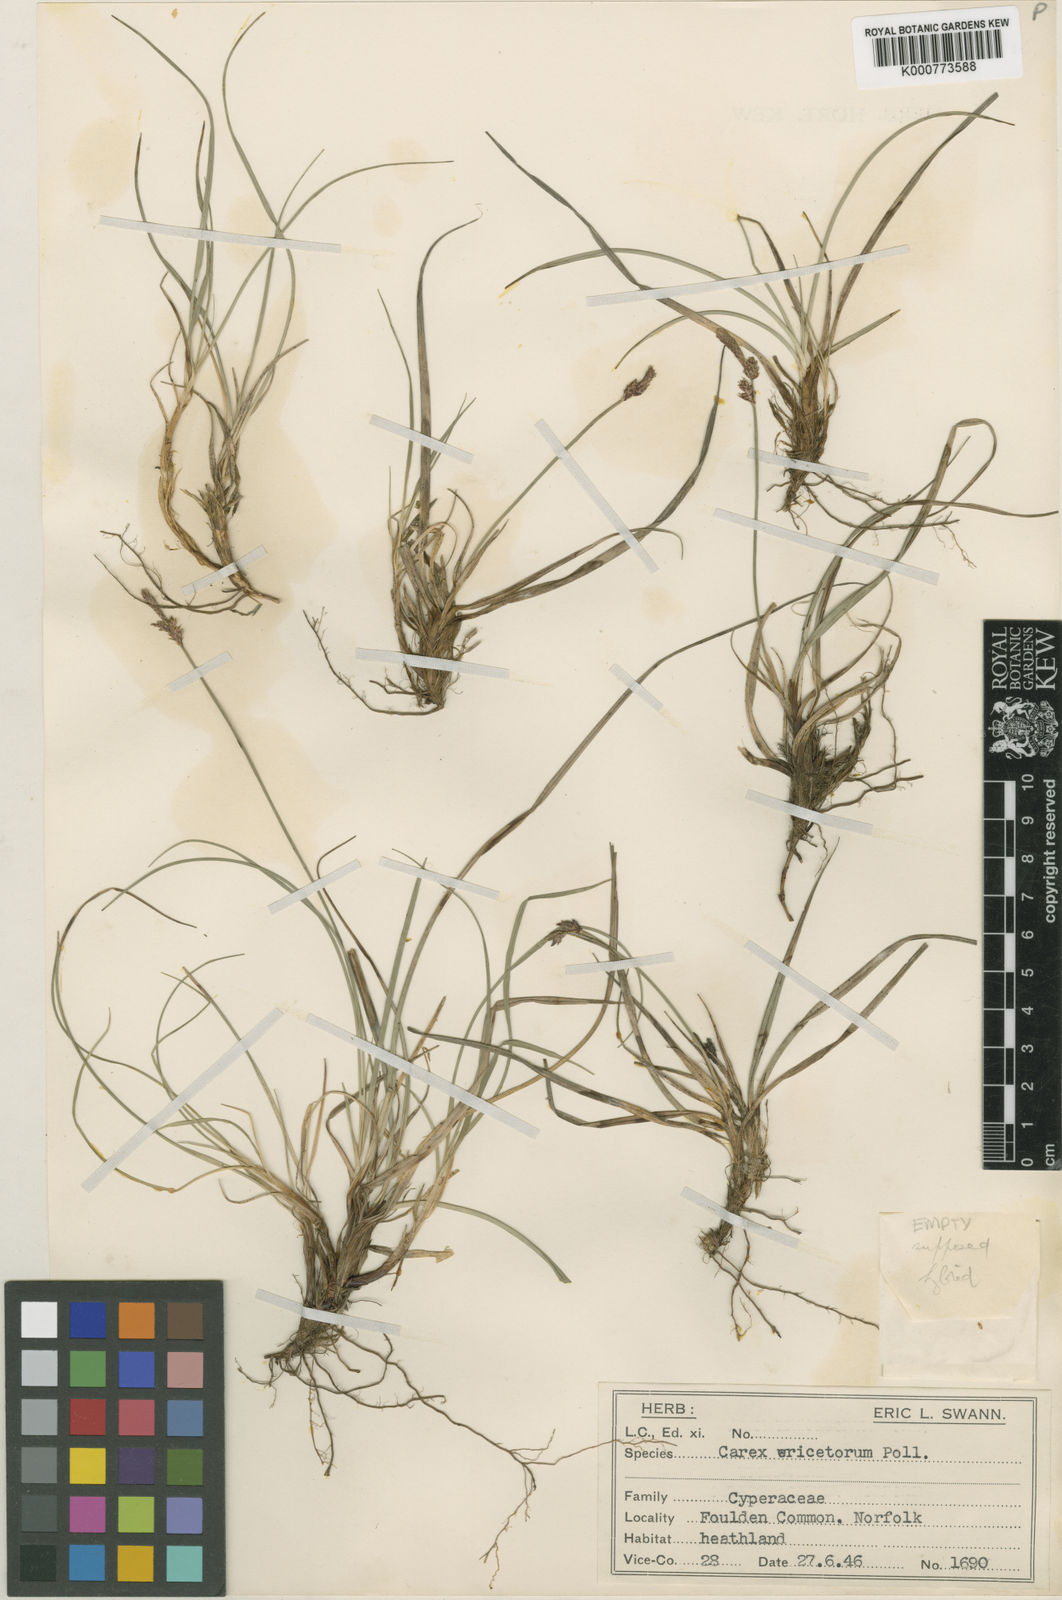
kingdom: Plantae
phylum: Tracheophyta
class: Liliopsida
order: Poales
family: Cyperaceae
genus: Carex
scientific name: Carex ericetorum
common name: Rare spring-sedge
